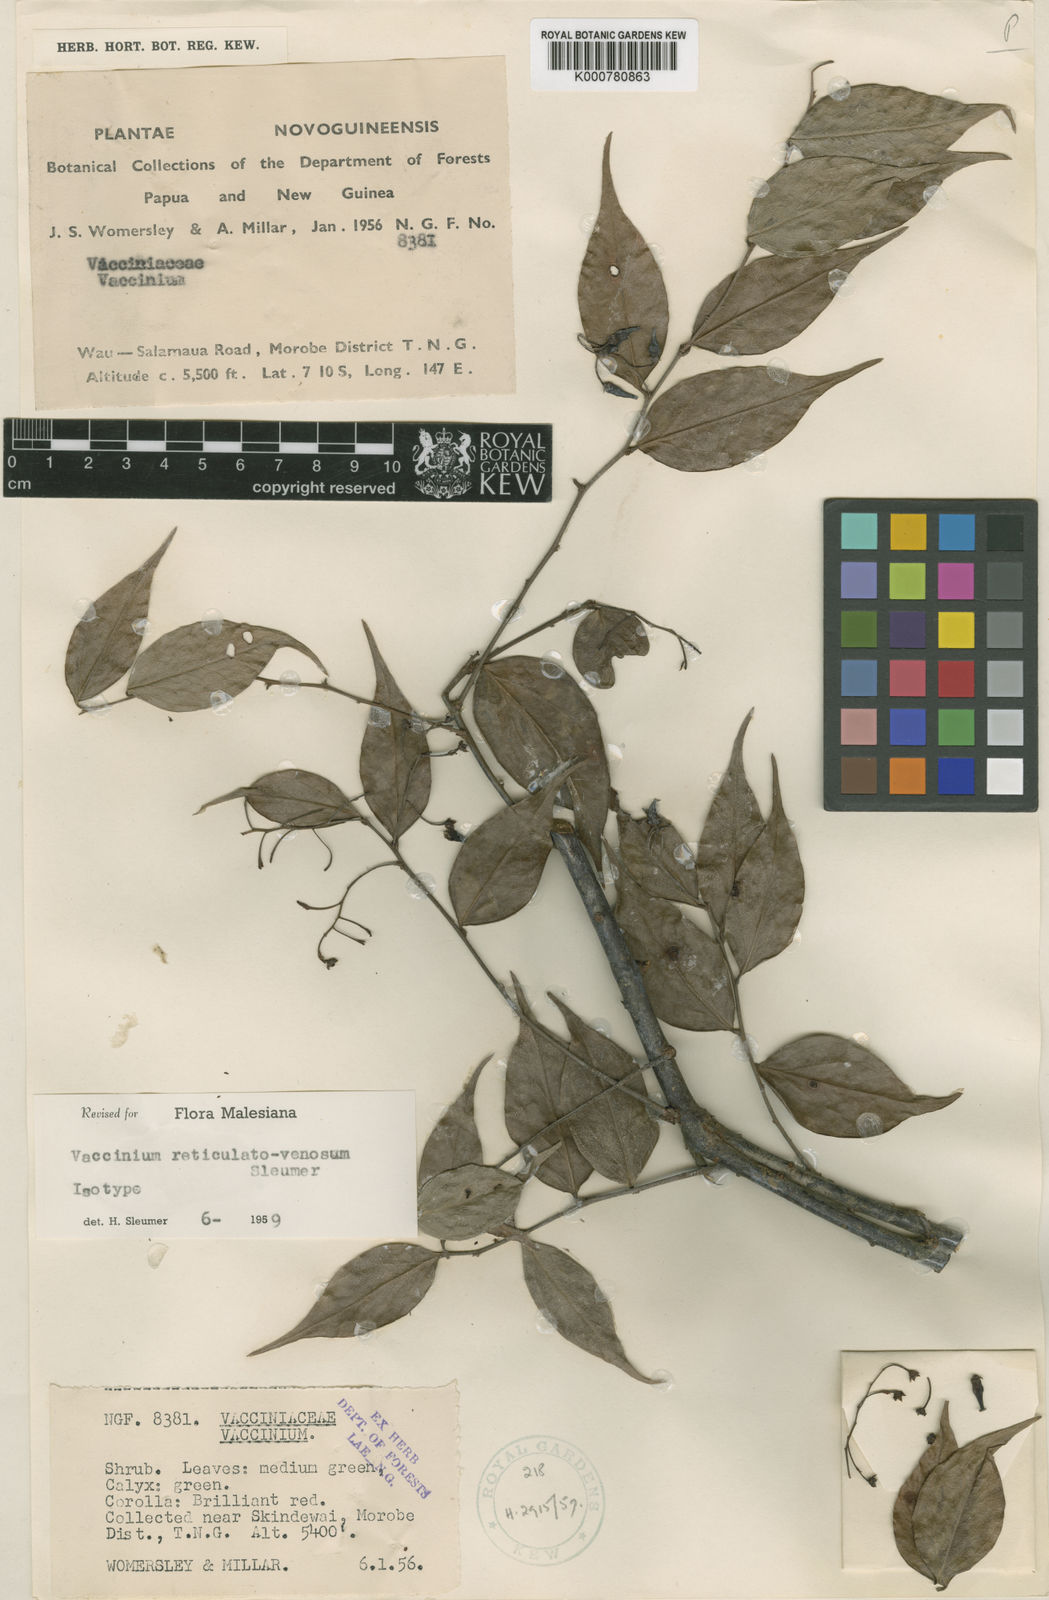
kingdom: Plantae
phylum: Tracheophyta
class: Magnoliopsida
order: Ericales
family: Ericaceae
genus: Vaccinium
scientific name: Vaccinium reticulatovenosum
